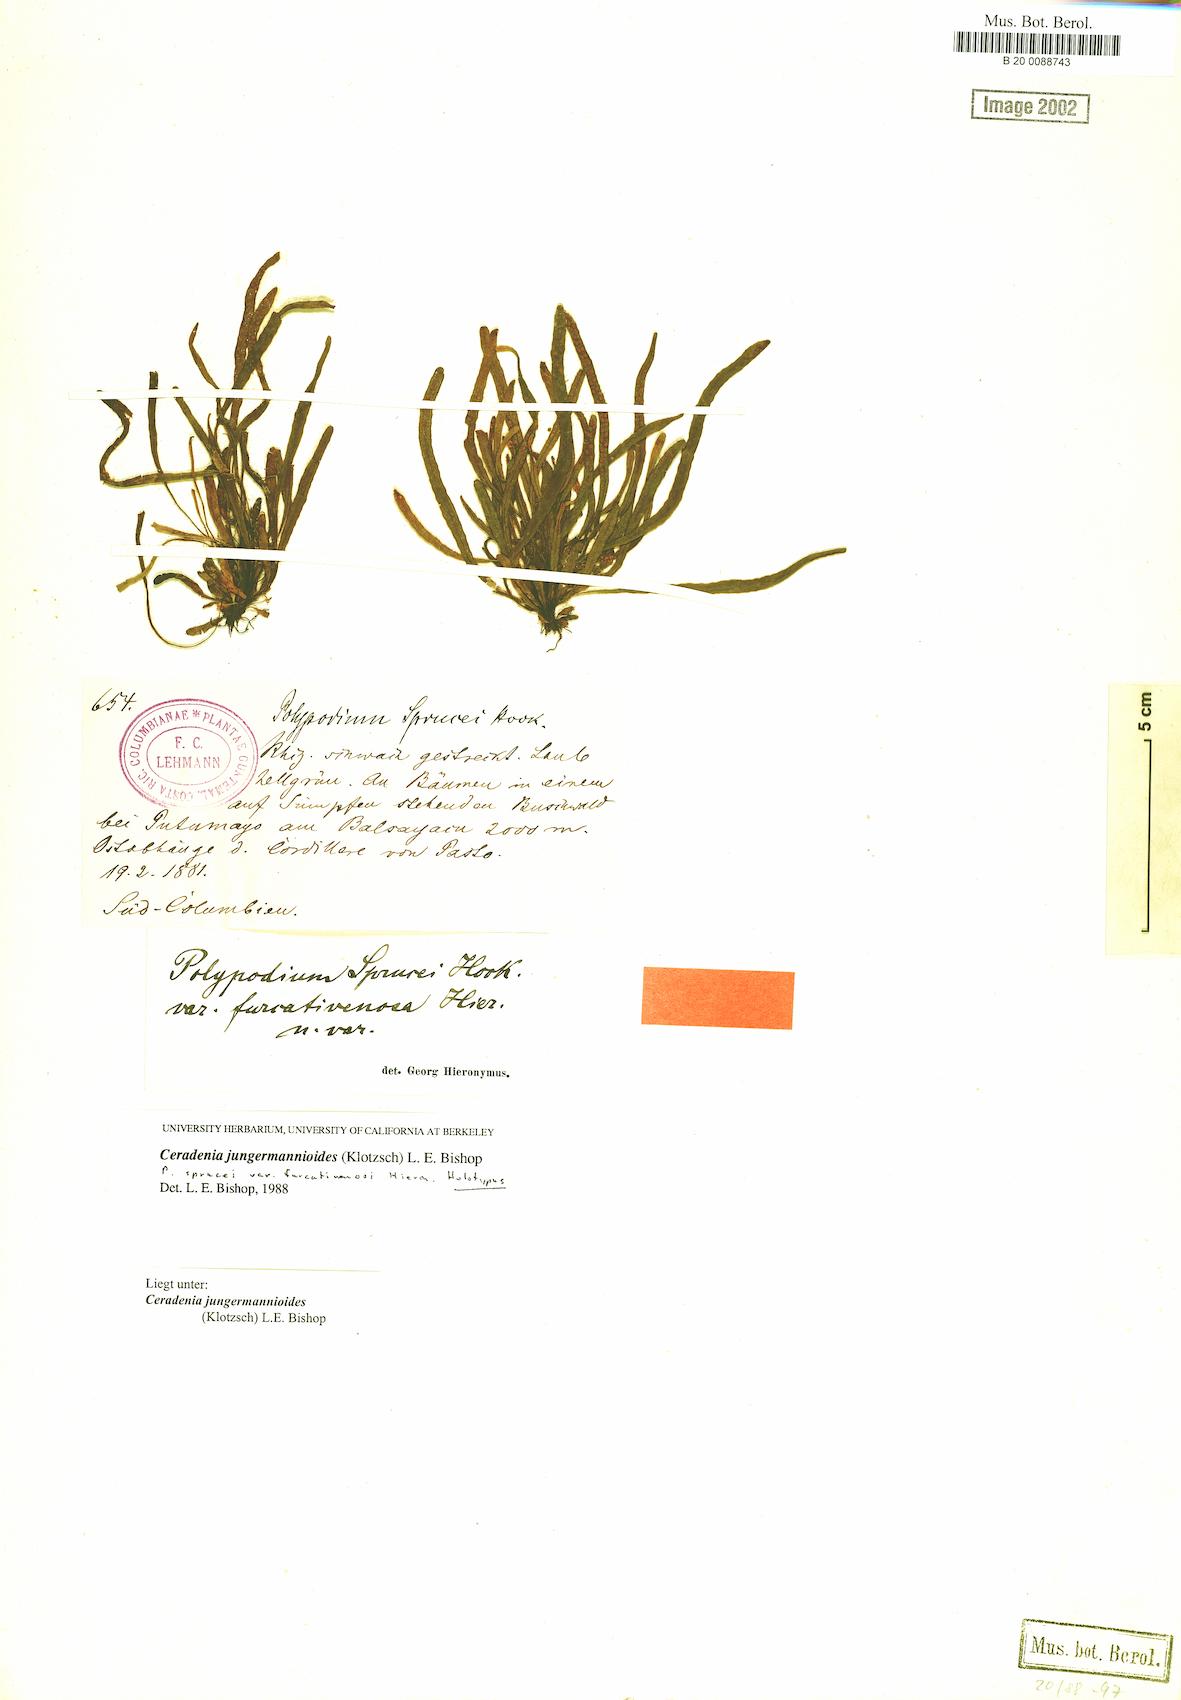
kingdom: Plantae
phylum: Tracheophyta
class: Polypodiopsida
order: Polypodiales
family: Polypodiaceae
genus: Ceradenia
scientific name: Ceradenia jungermannioides
